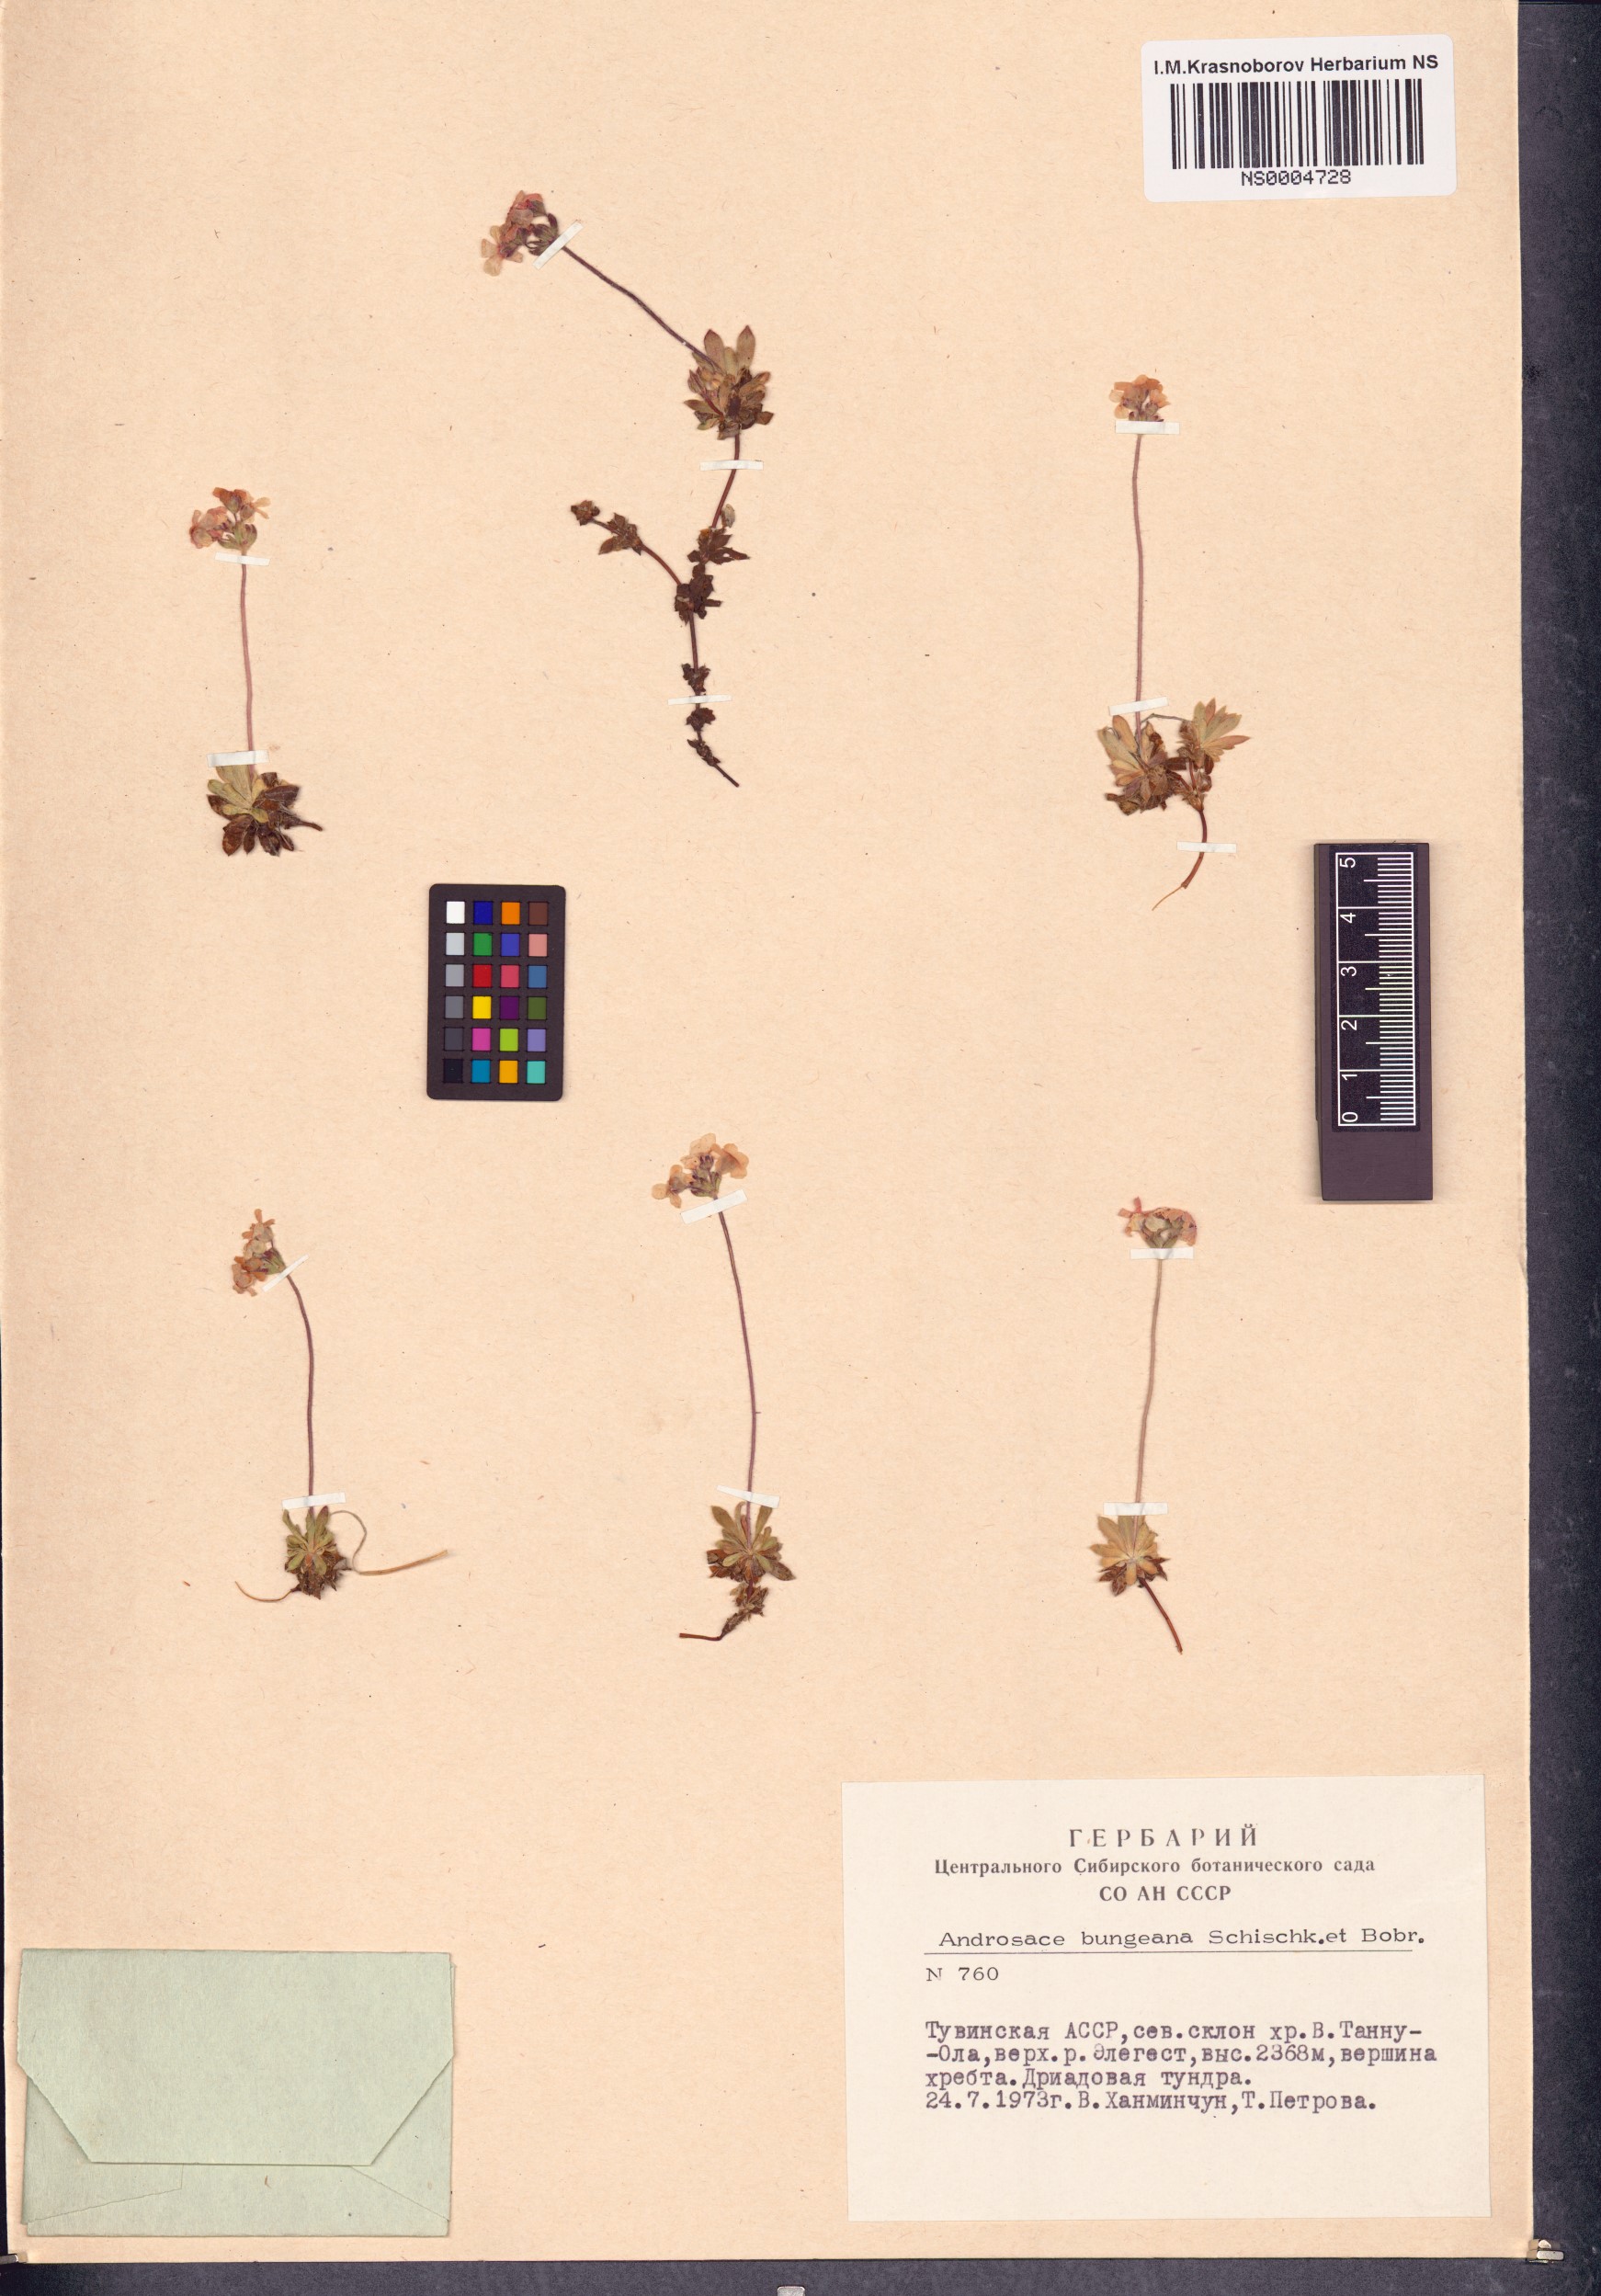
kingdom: Plantae
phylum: Tracheophyta
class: Magnoliopsida
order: Ericales
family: Primulaceae
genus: Androsace
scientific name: Androsace bungeana
